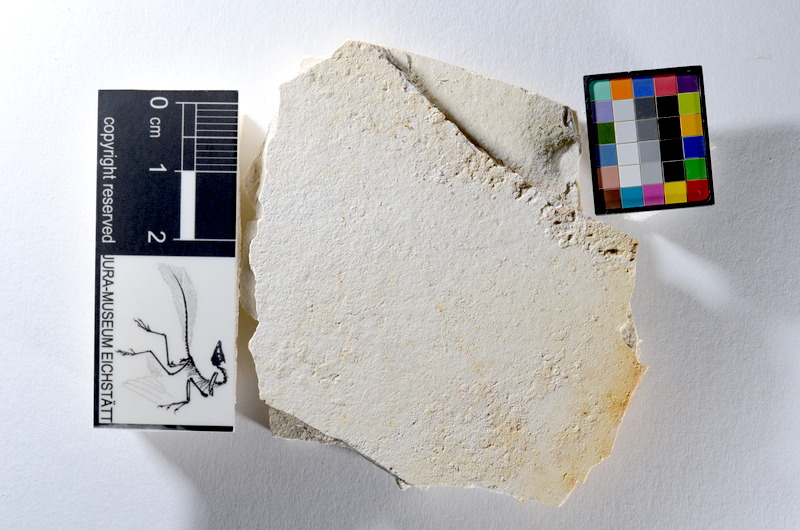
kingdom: Animalia
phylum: Chordata
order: Salmoniformes
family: Orthogonikleithridae
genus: Orthogonikleithrus
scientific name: Orthogonikleithrus hoelli
